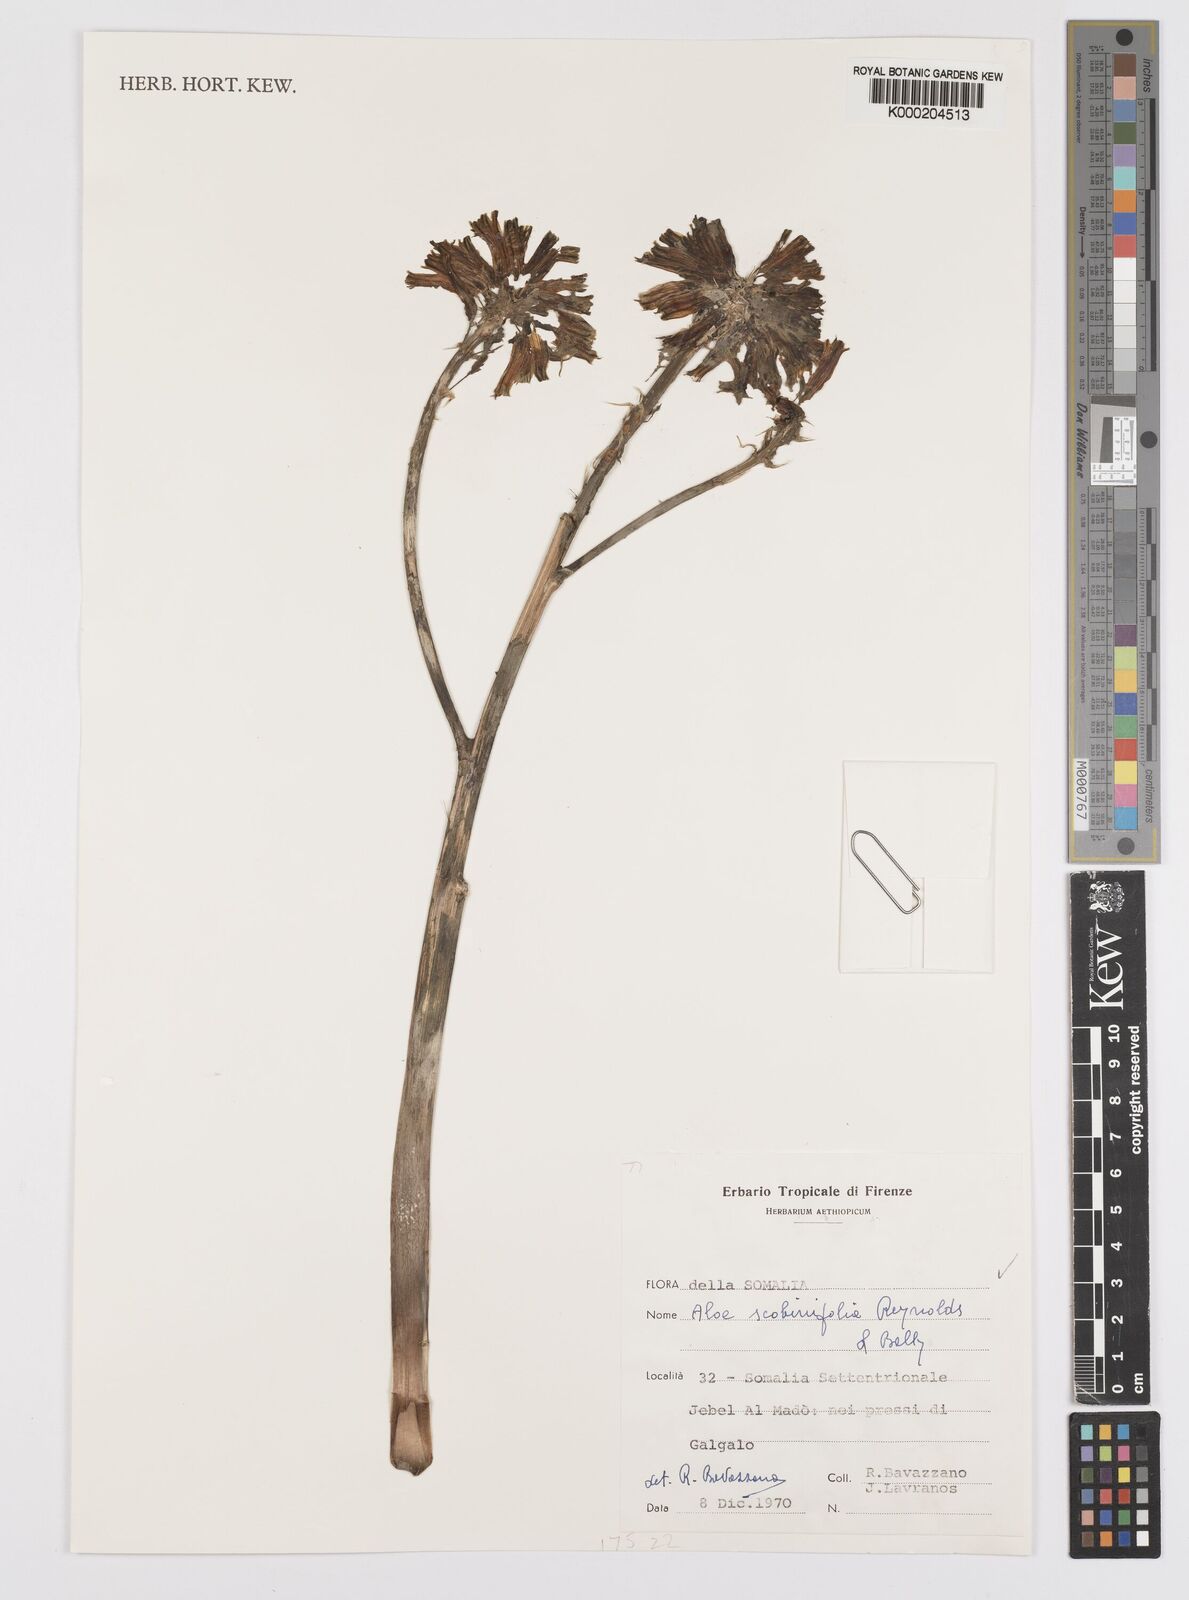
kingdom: Plantae
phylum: Tracheophyta
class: Liliopsida
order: Asparagales
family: Asphodelaceae
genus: Aloe
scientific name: Aloe scobinifolia
